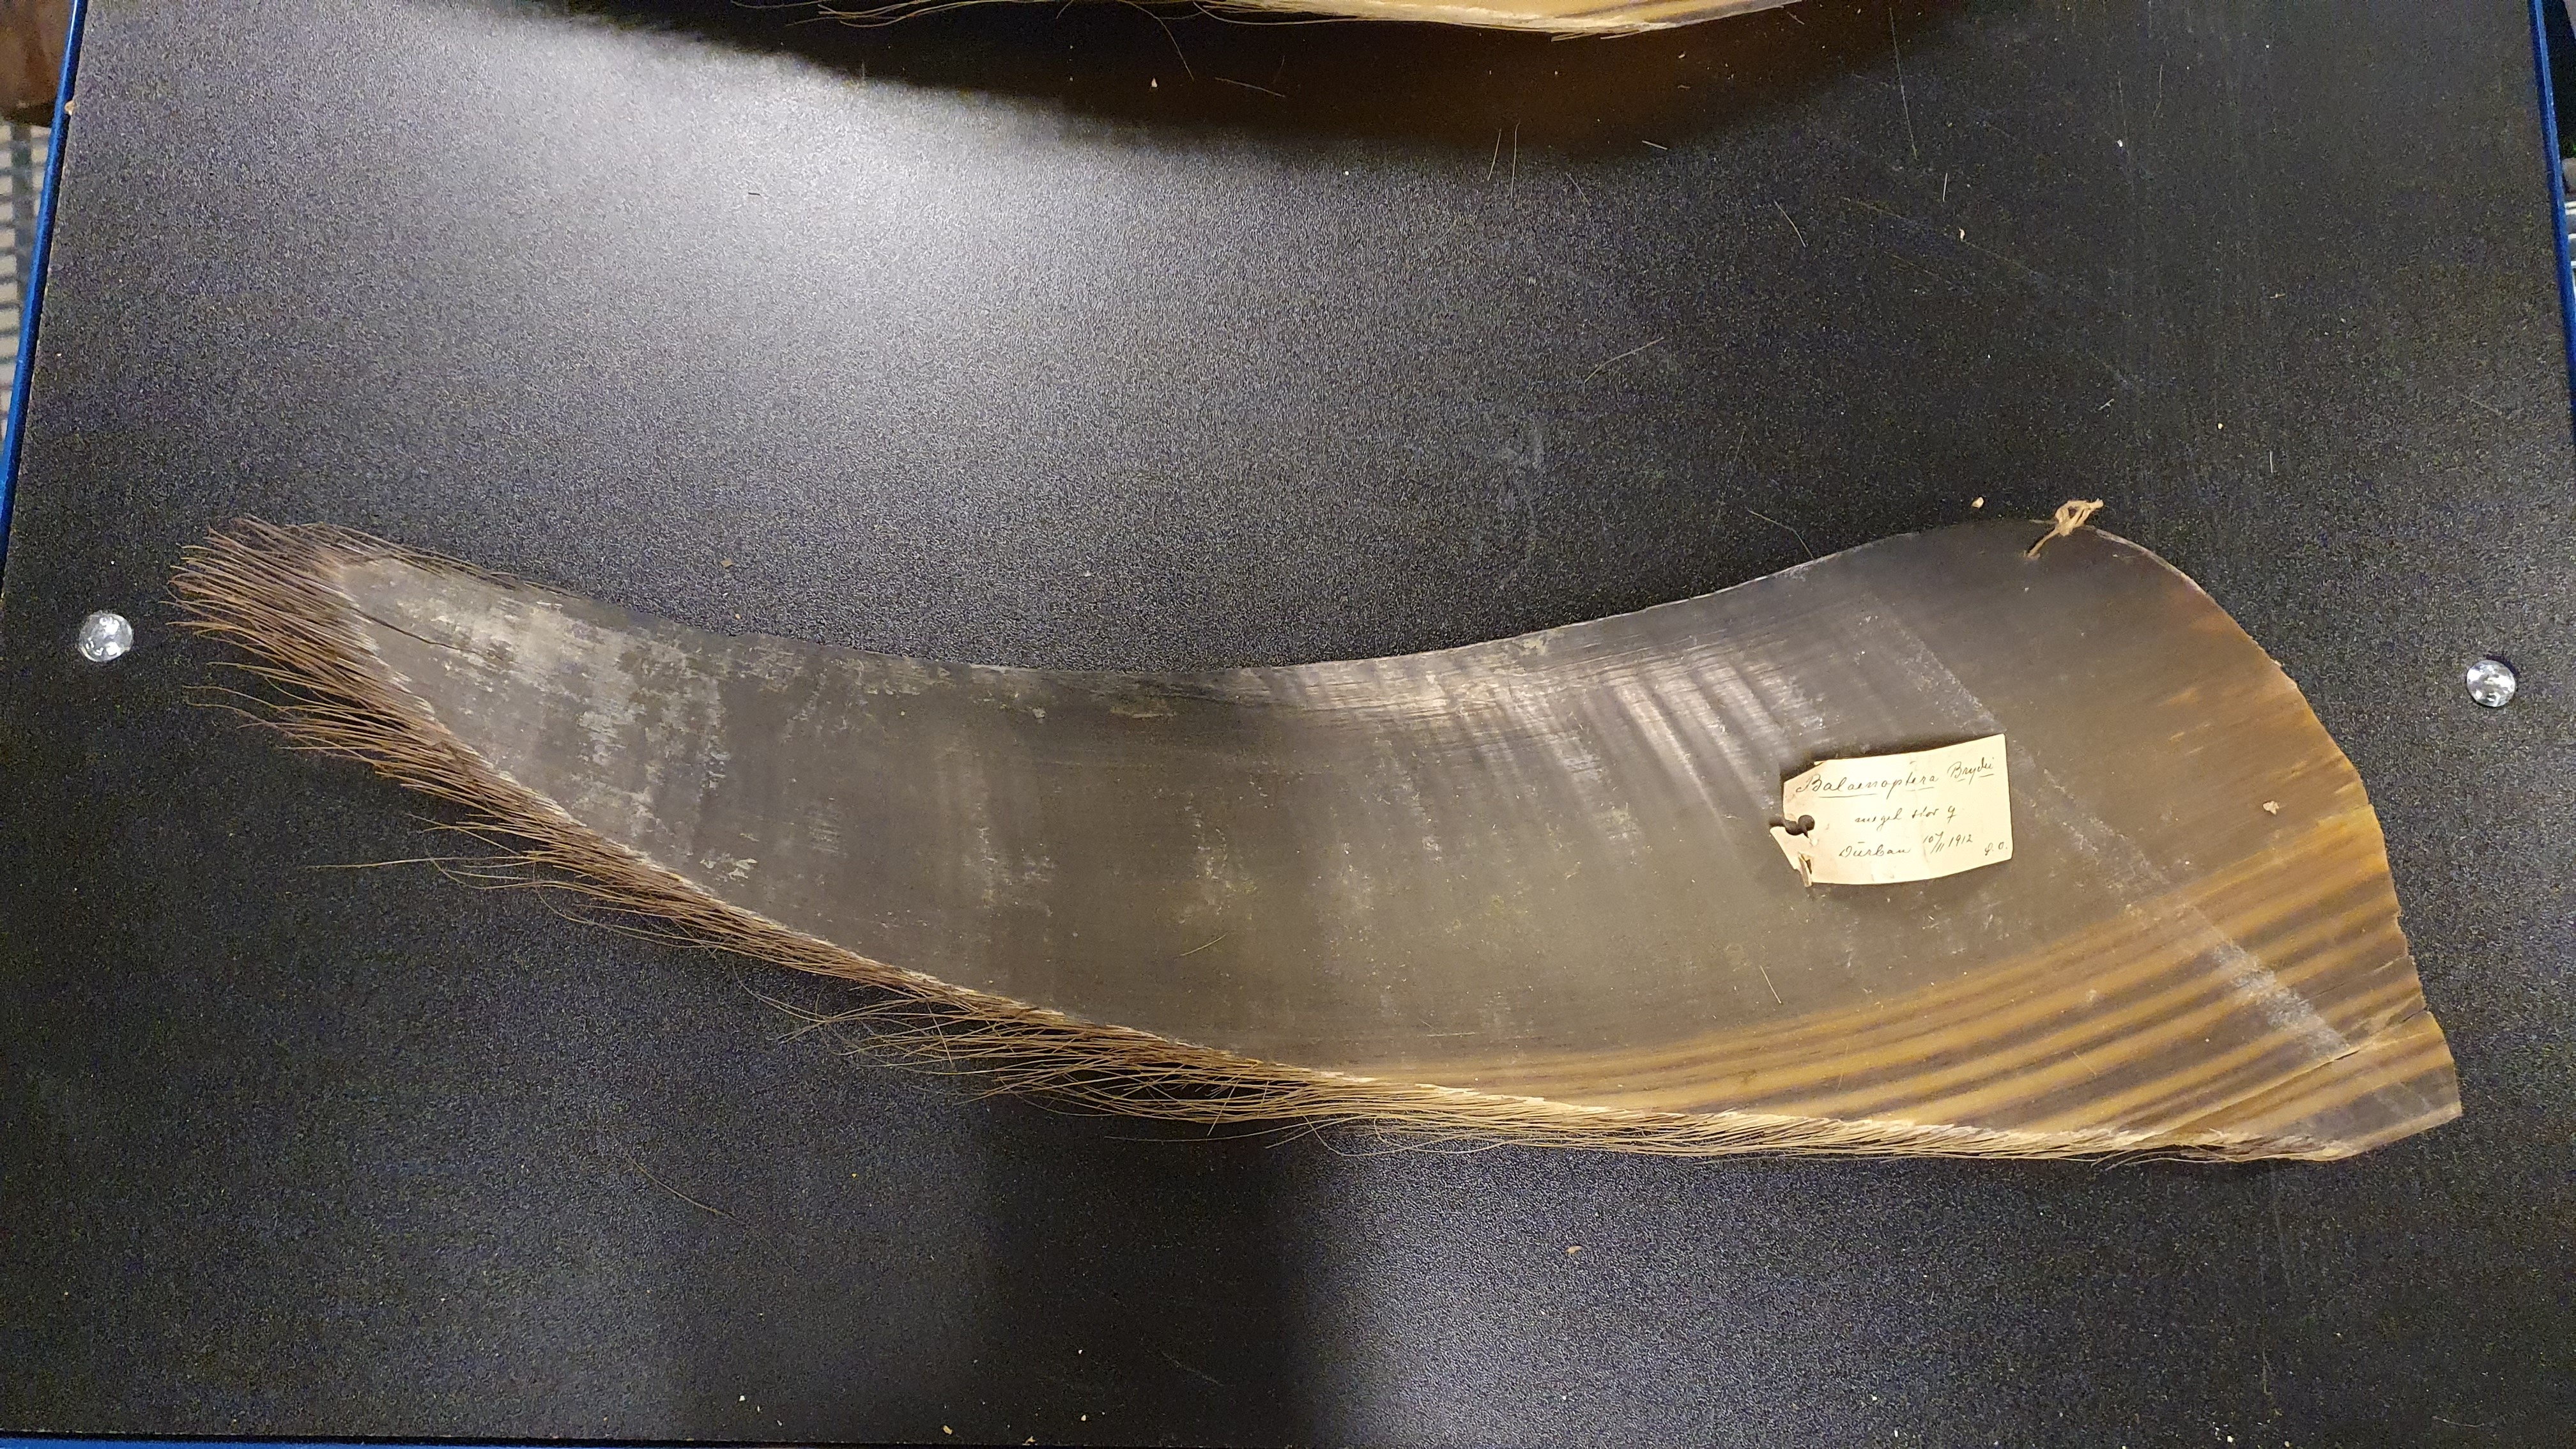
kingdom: Animalia
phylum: Chordata
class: Mammalia
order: Cetacea
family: Balaenopteridae
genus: Balaenoptera
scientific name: Balaenoptera edeni
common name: Bryde's whale
